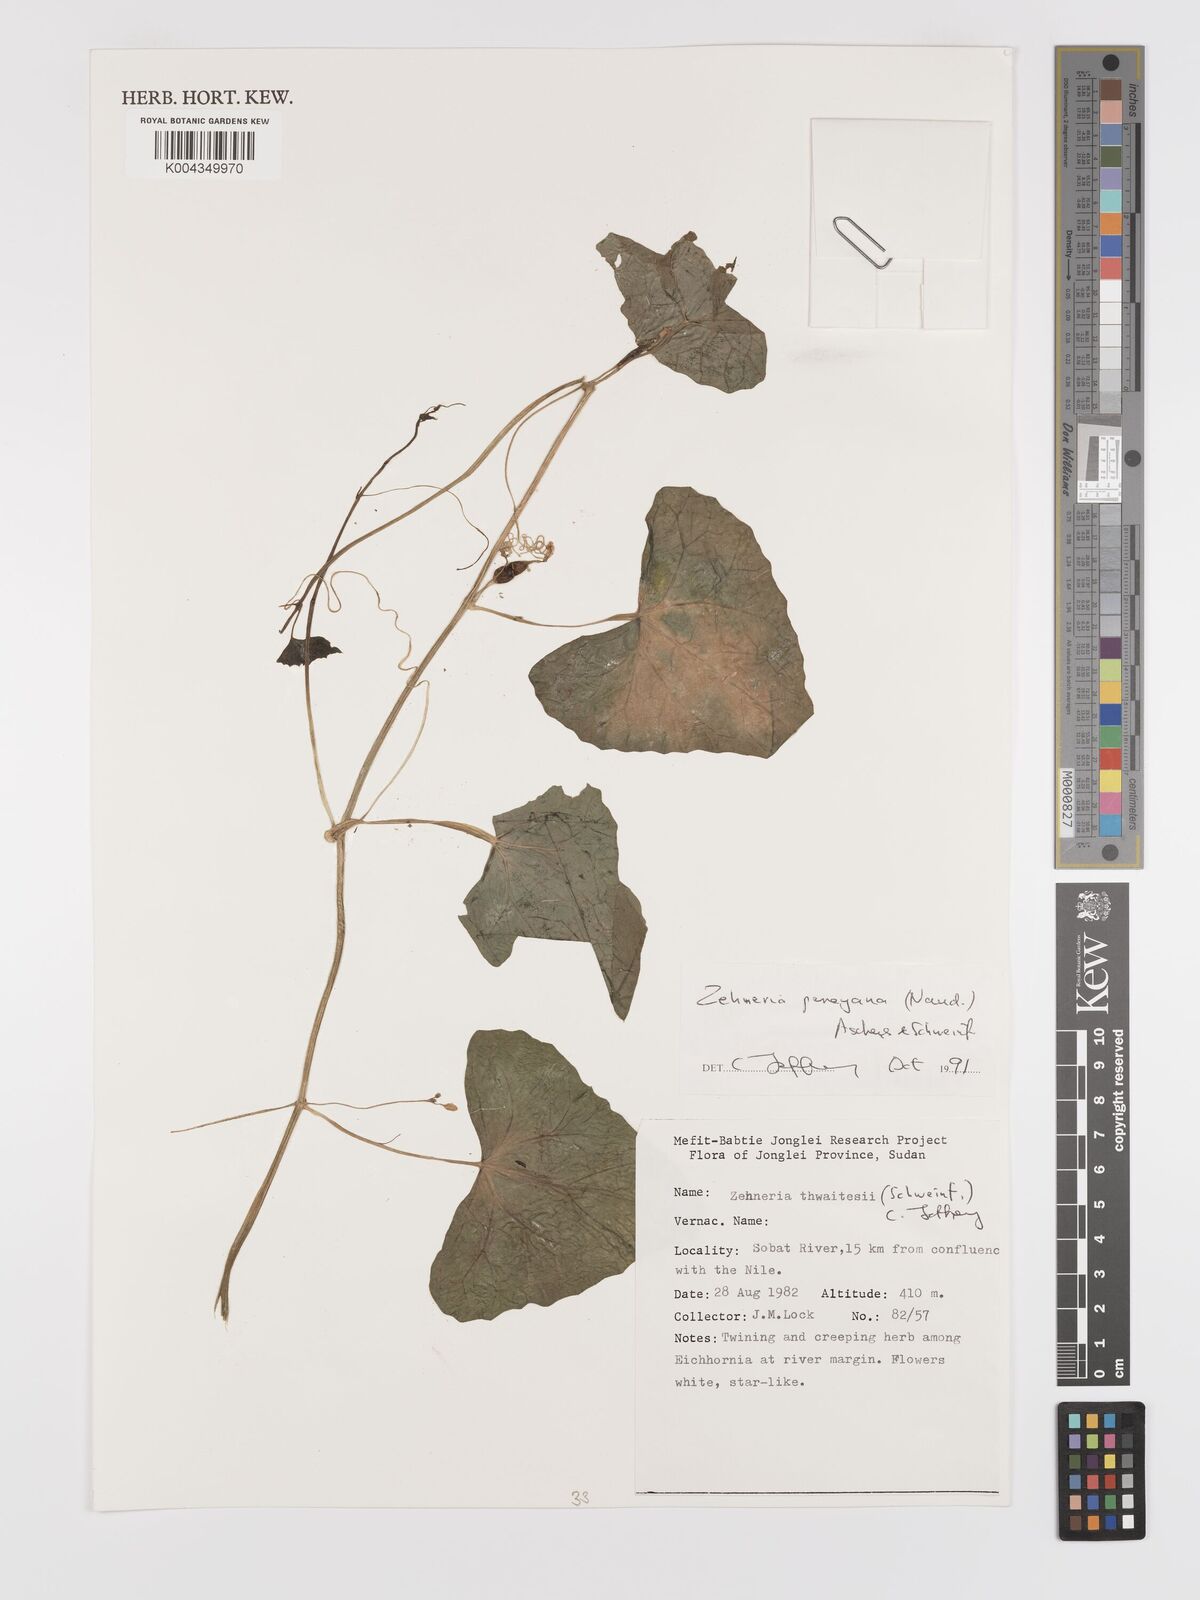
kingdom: Plantae
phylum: Tracheophyta
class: Magnoliopsida
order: Cucurbitales
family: Cucurbitaceae
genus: Zehneria
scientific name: Zehneria peneyana
